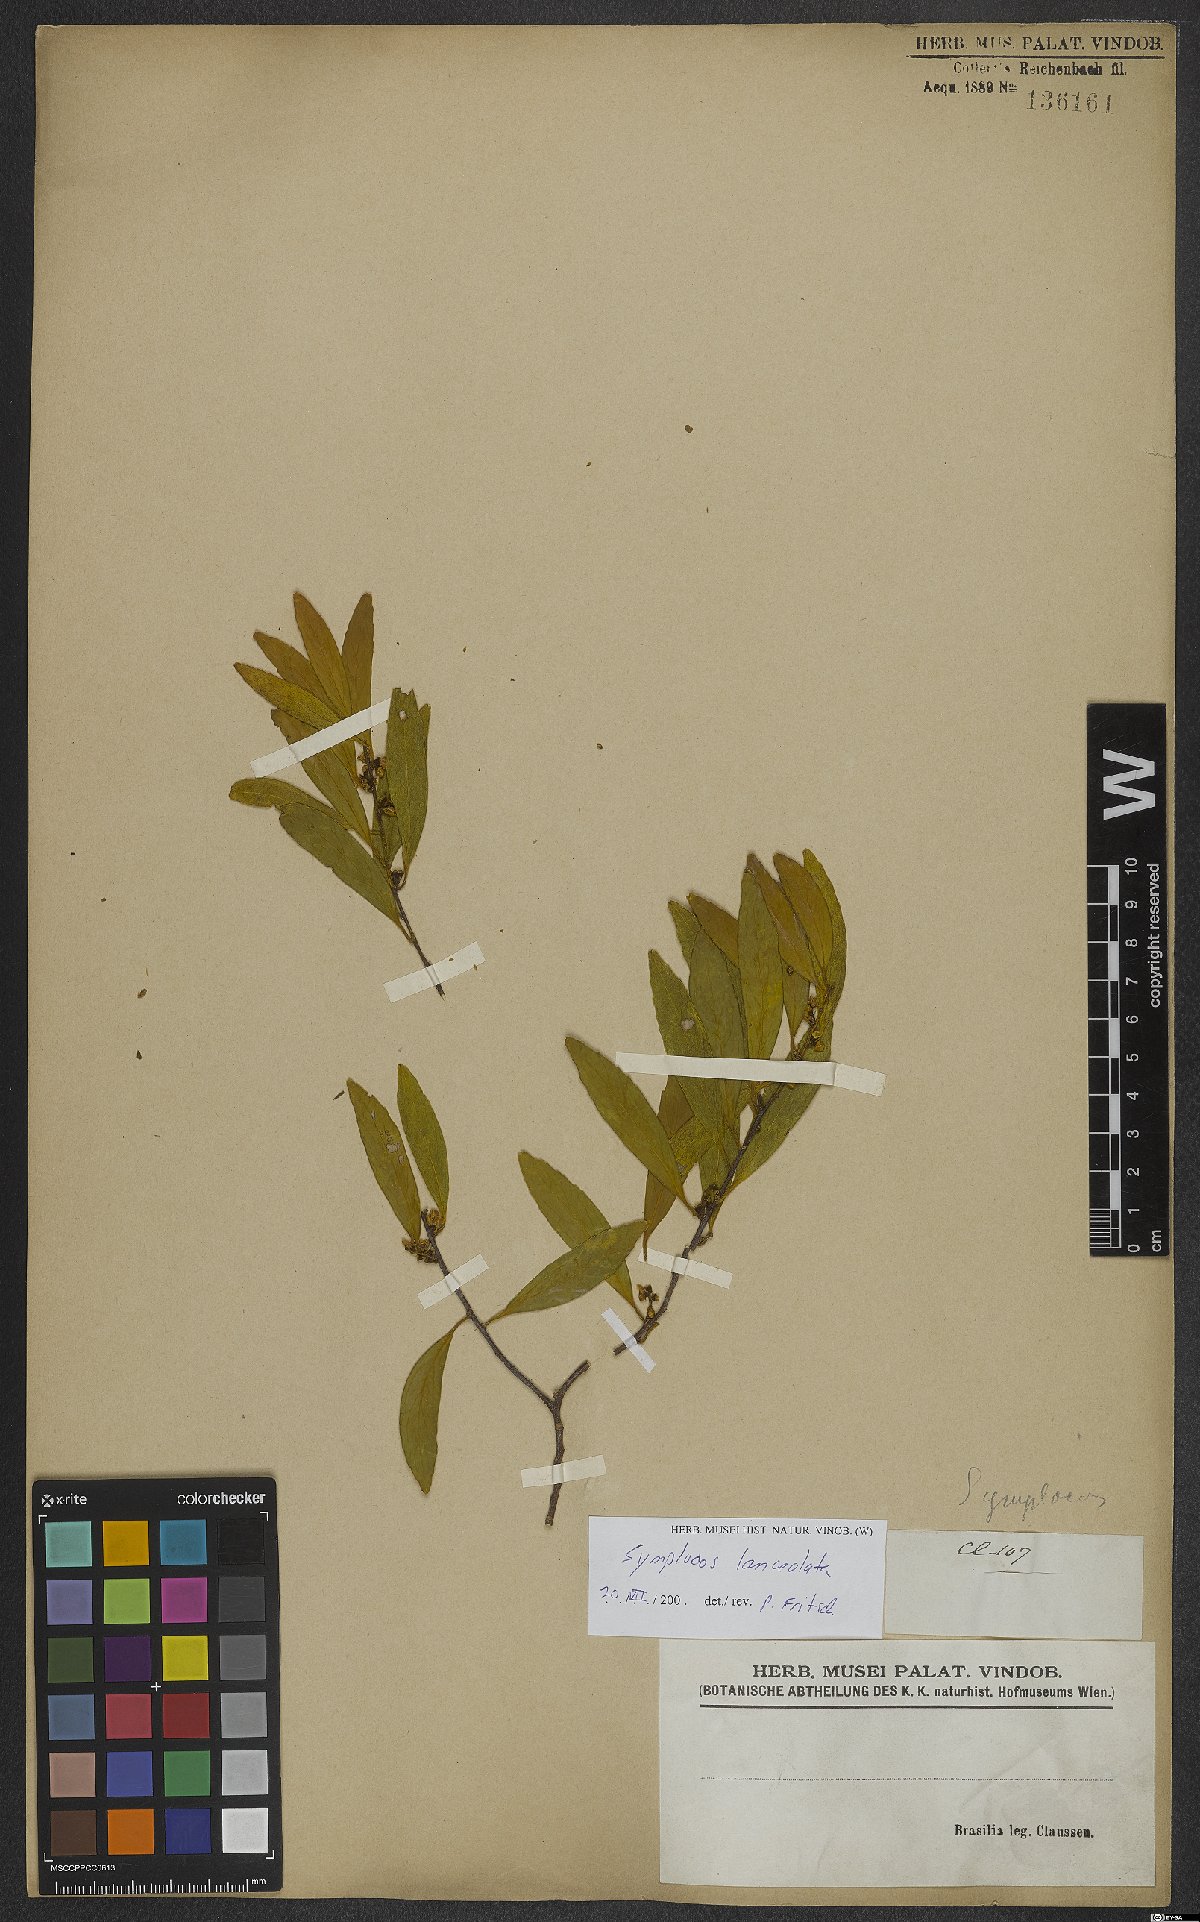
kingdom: Plantae
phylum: Tracheophyta
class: Magnoliopsida
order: Ericales
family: Symplocaceae
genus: Symplocos
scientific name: Symplocos oblongifolia
